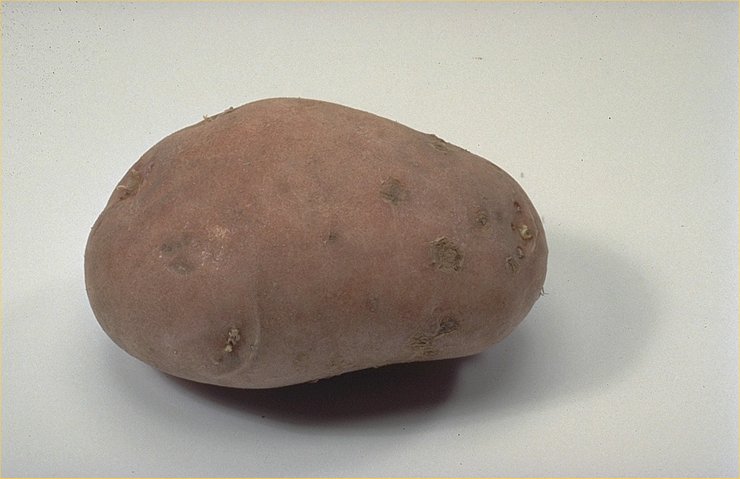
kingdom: Plantae
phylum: Tracheophyta
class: Magnoliopsida
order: Solanales
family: Solanaceae
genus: Solanum
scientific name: Solanum tuberosum
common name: Potato
